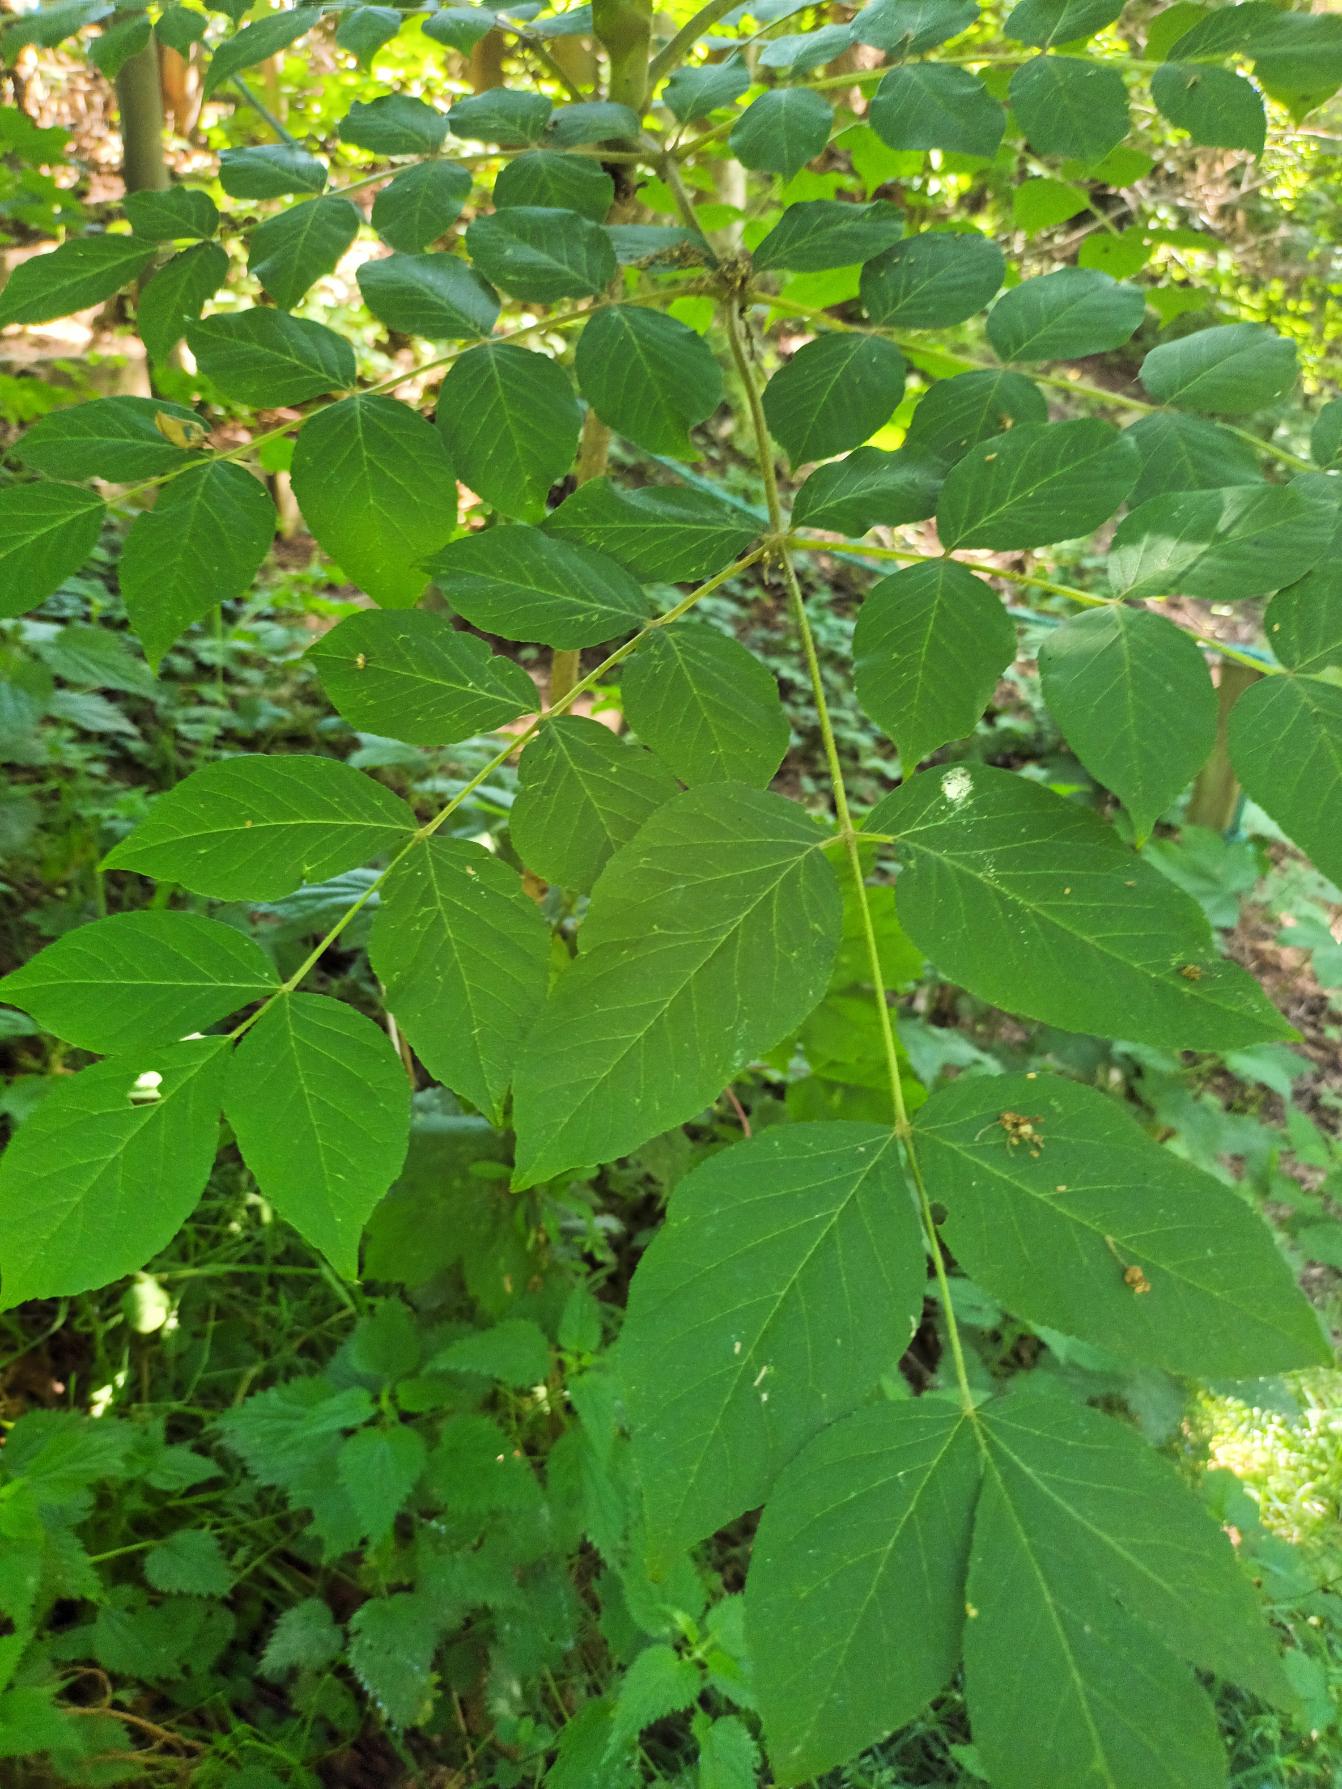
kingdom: Plantae
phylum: Tracheophyta
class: Magnoliopsida
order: Apiales
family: Araliaceae
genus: Aralia
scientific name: Aralia elata
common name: Have-aralie
